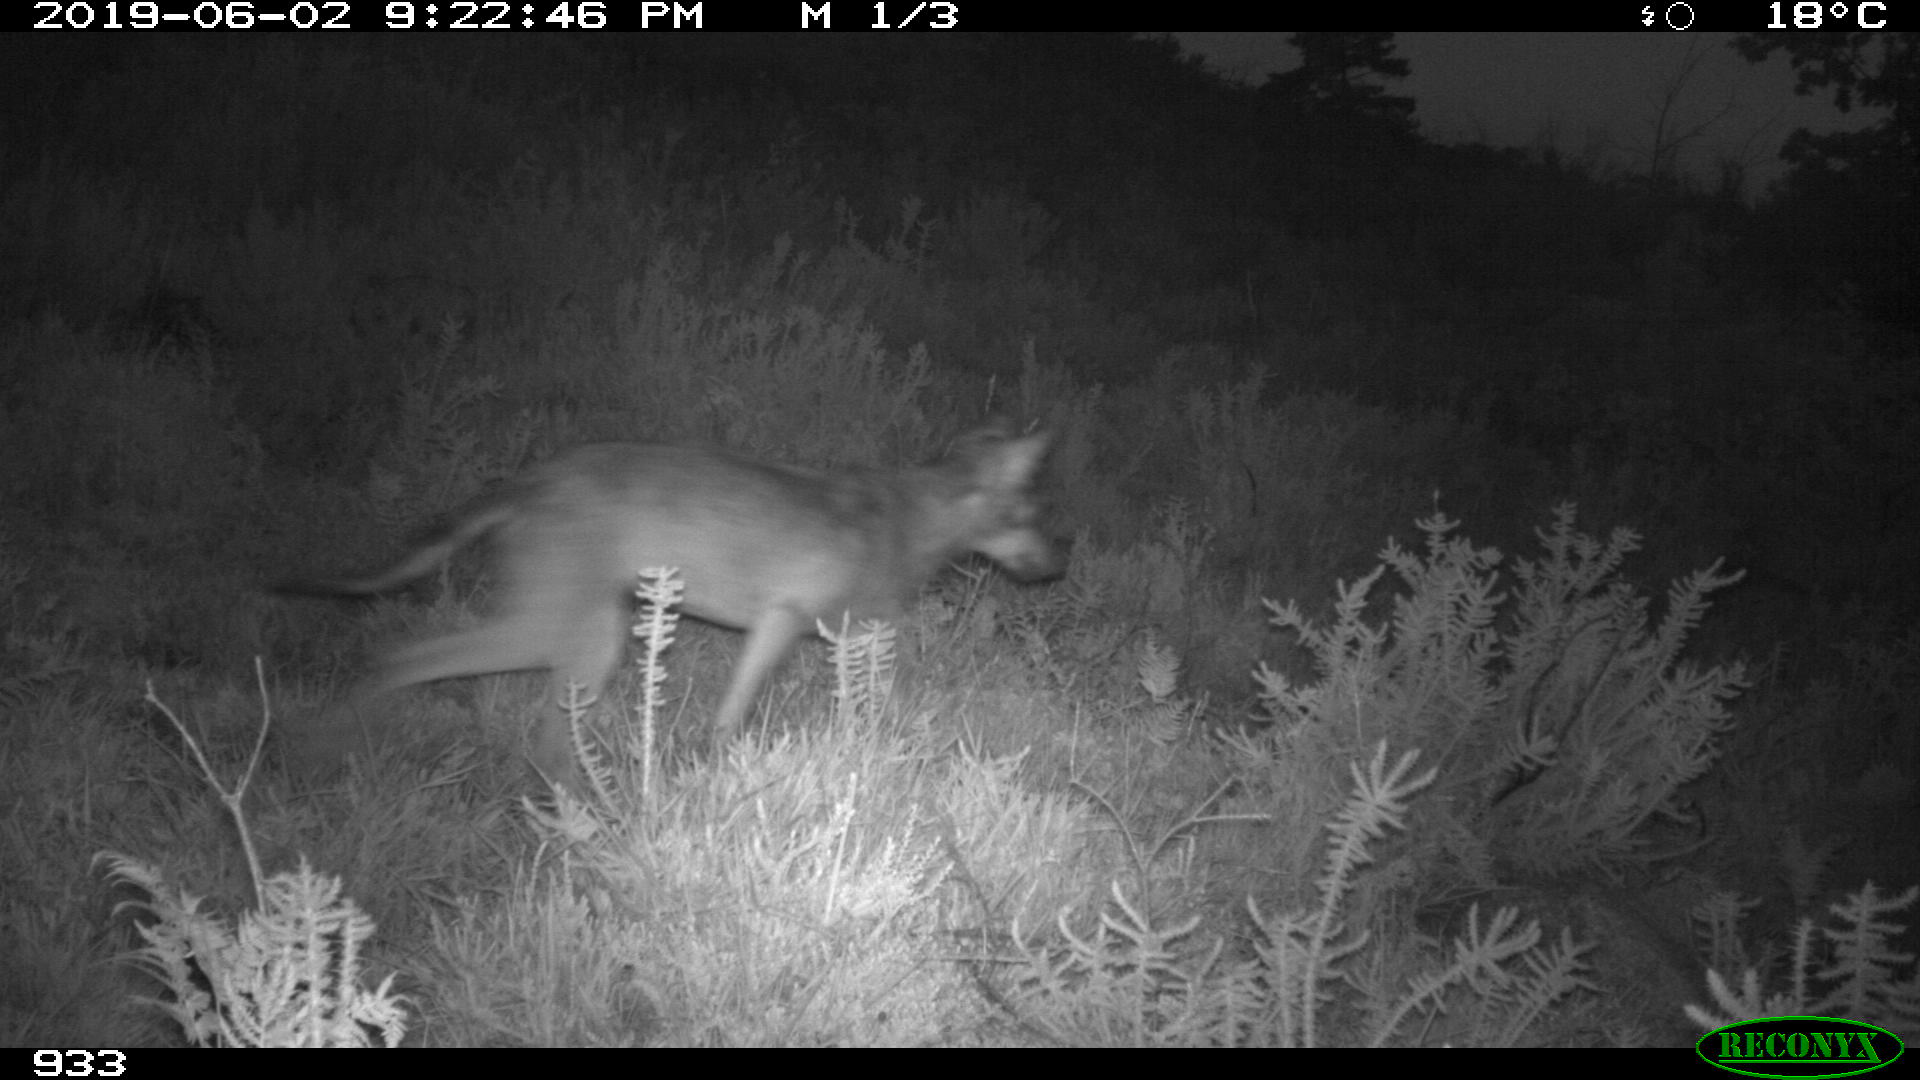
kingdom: Animalia
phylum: Chordata
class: Mammalia
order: Carnivora
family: Canidae
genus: Canis
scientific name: Canis lupus
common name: Gray wolf
